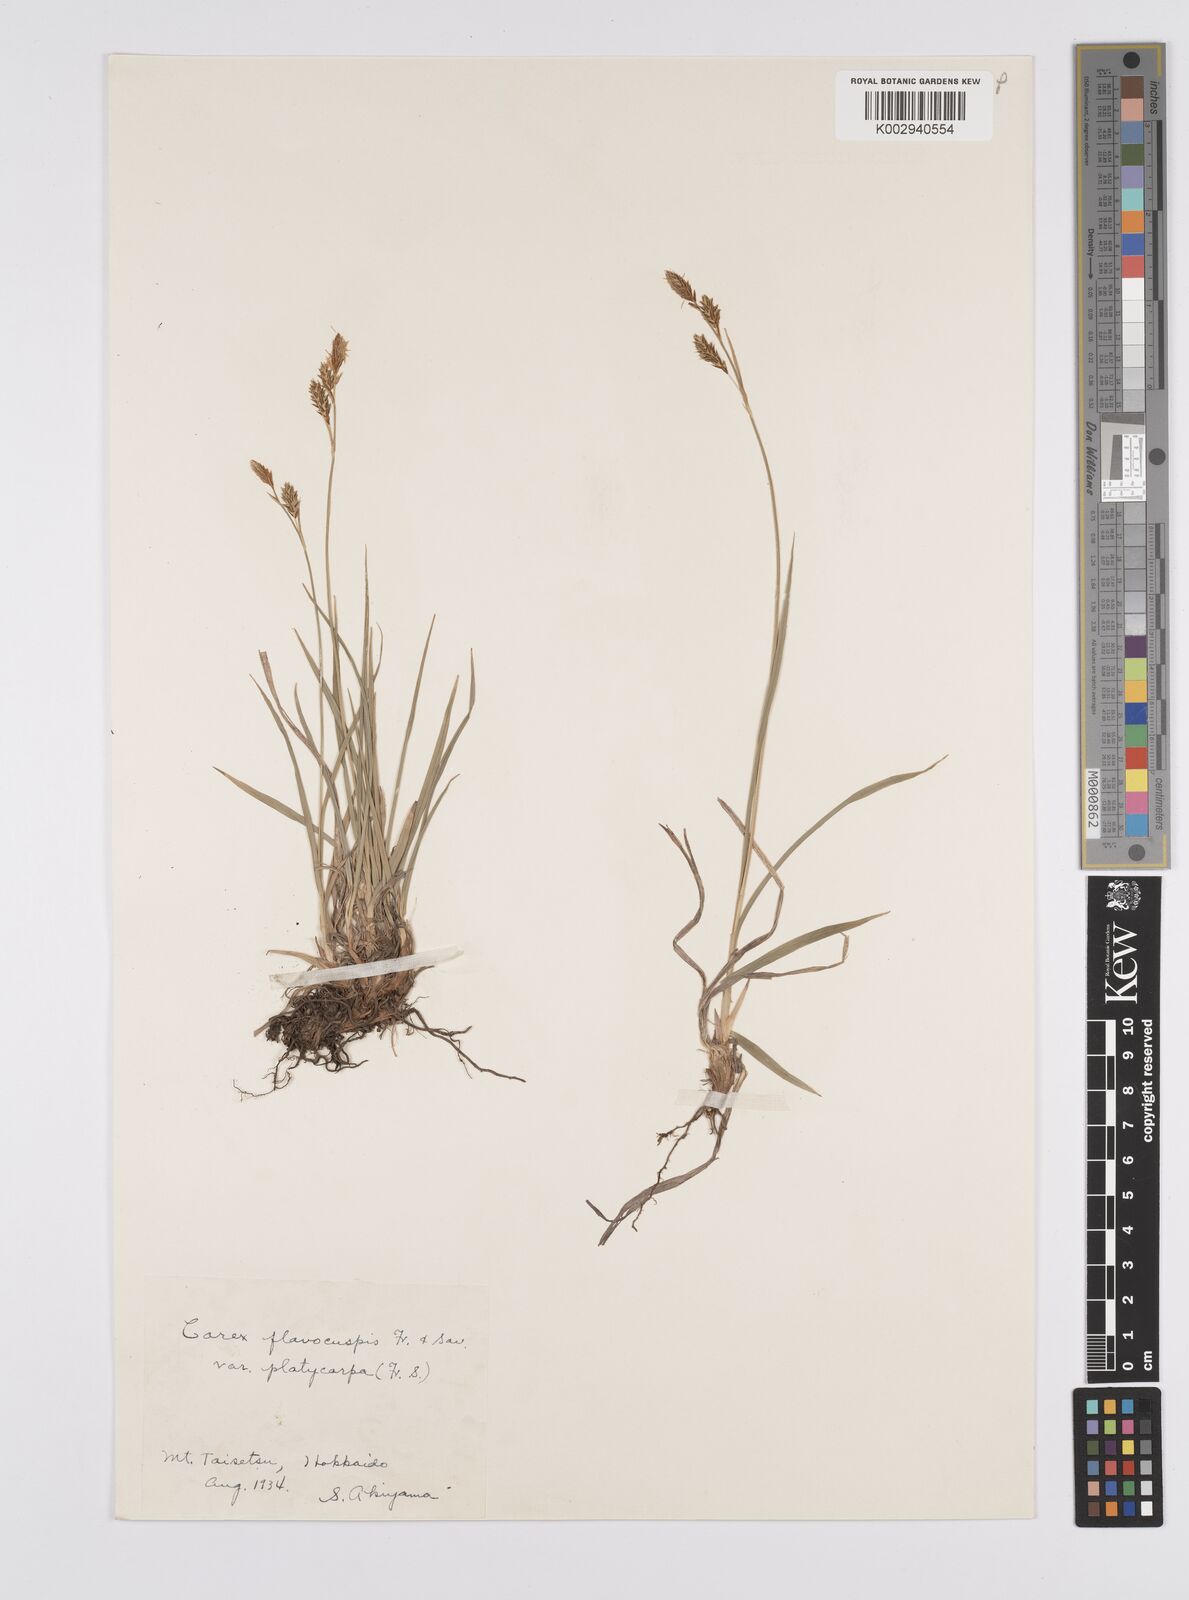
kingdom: Plantae
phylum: Tracheophyta
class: Liliopsida
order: Poales
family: Cyperaceae
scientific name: Cyperaceae
